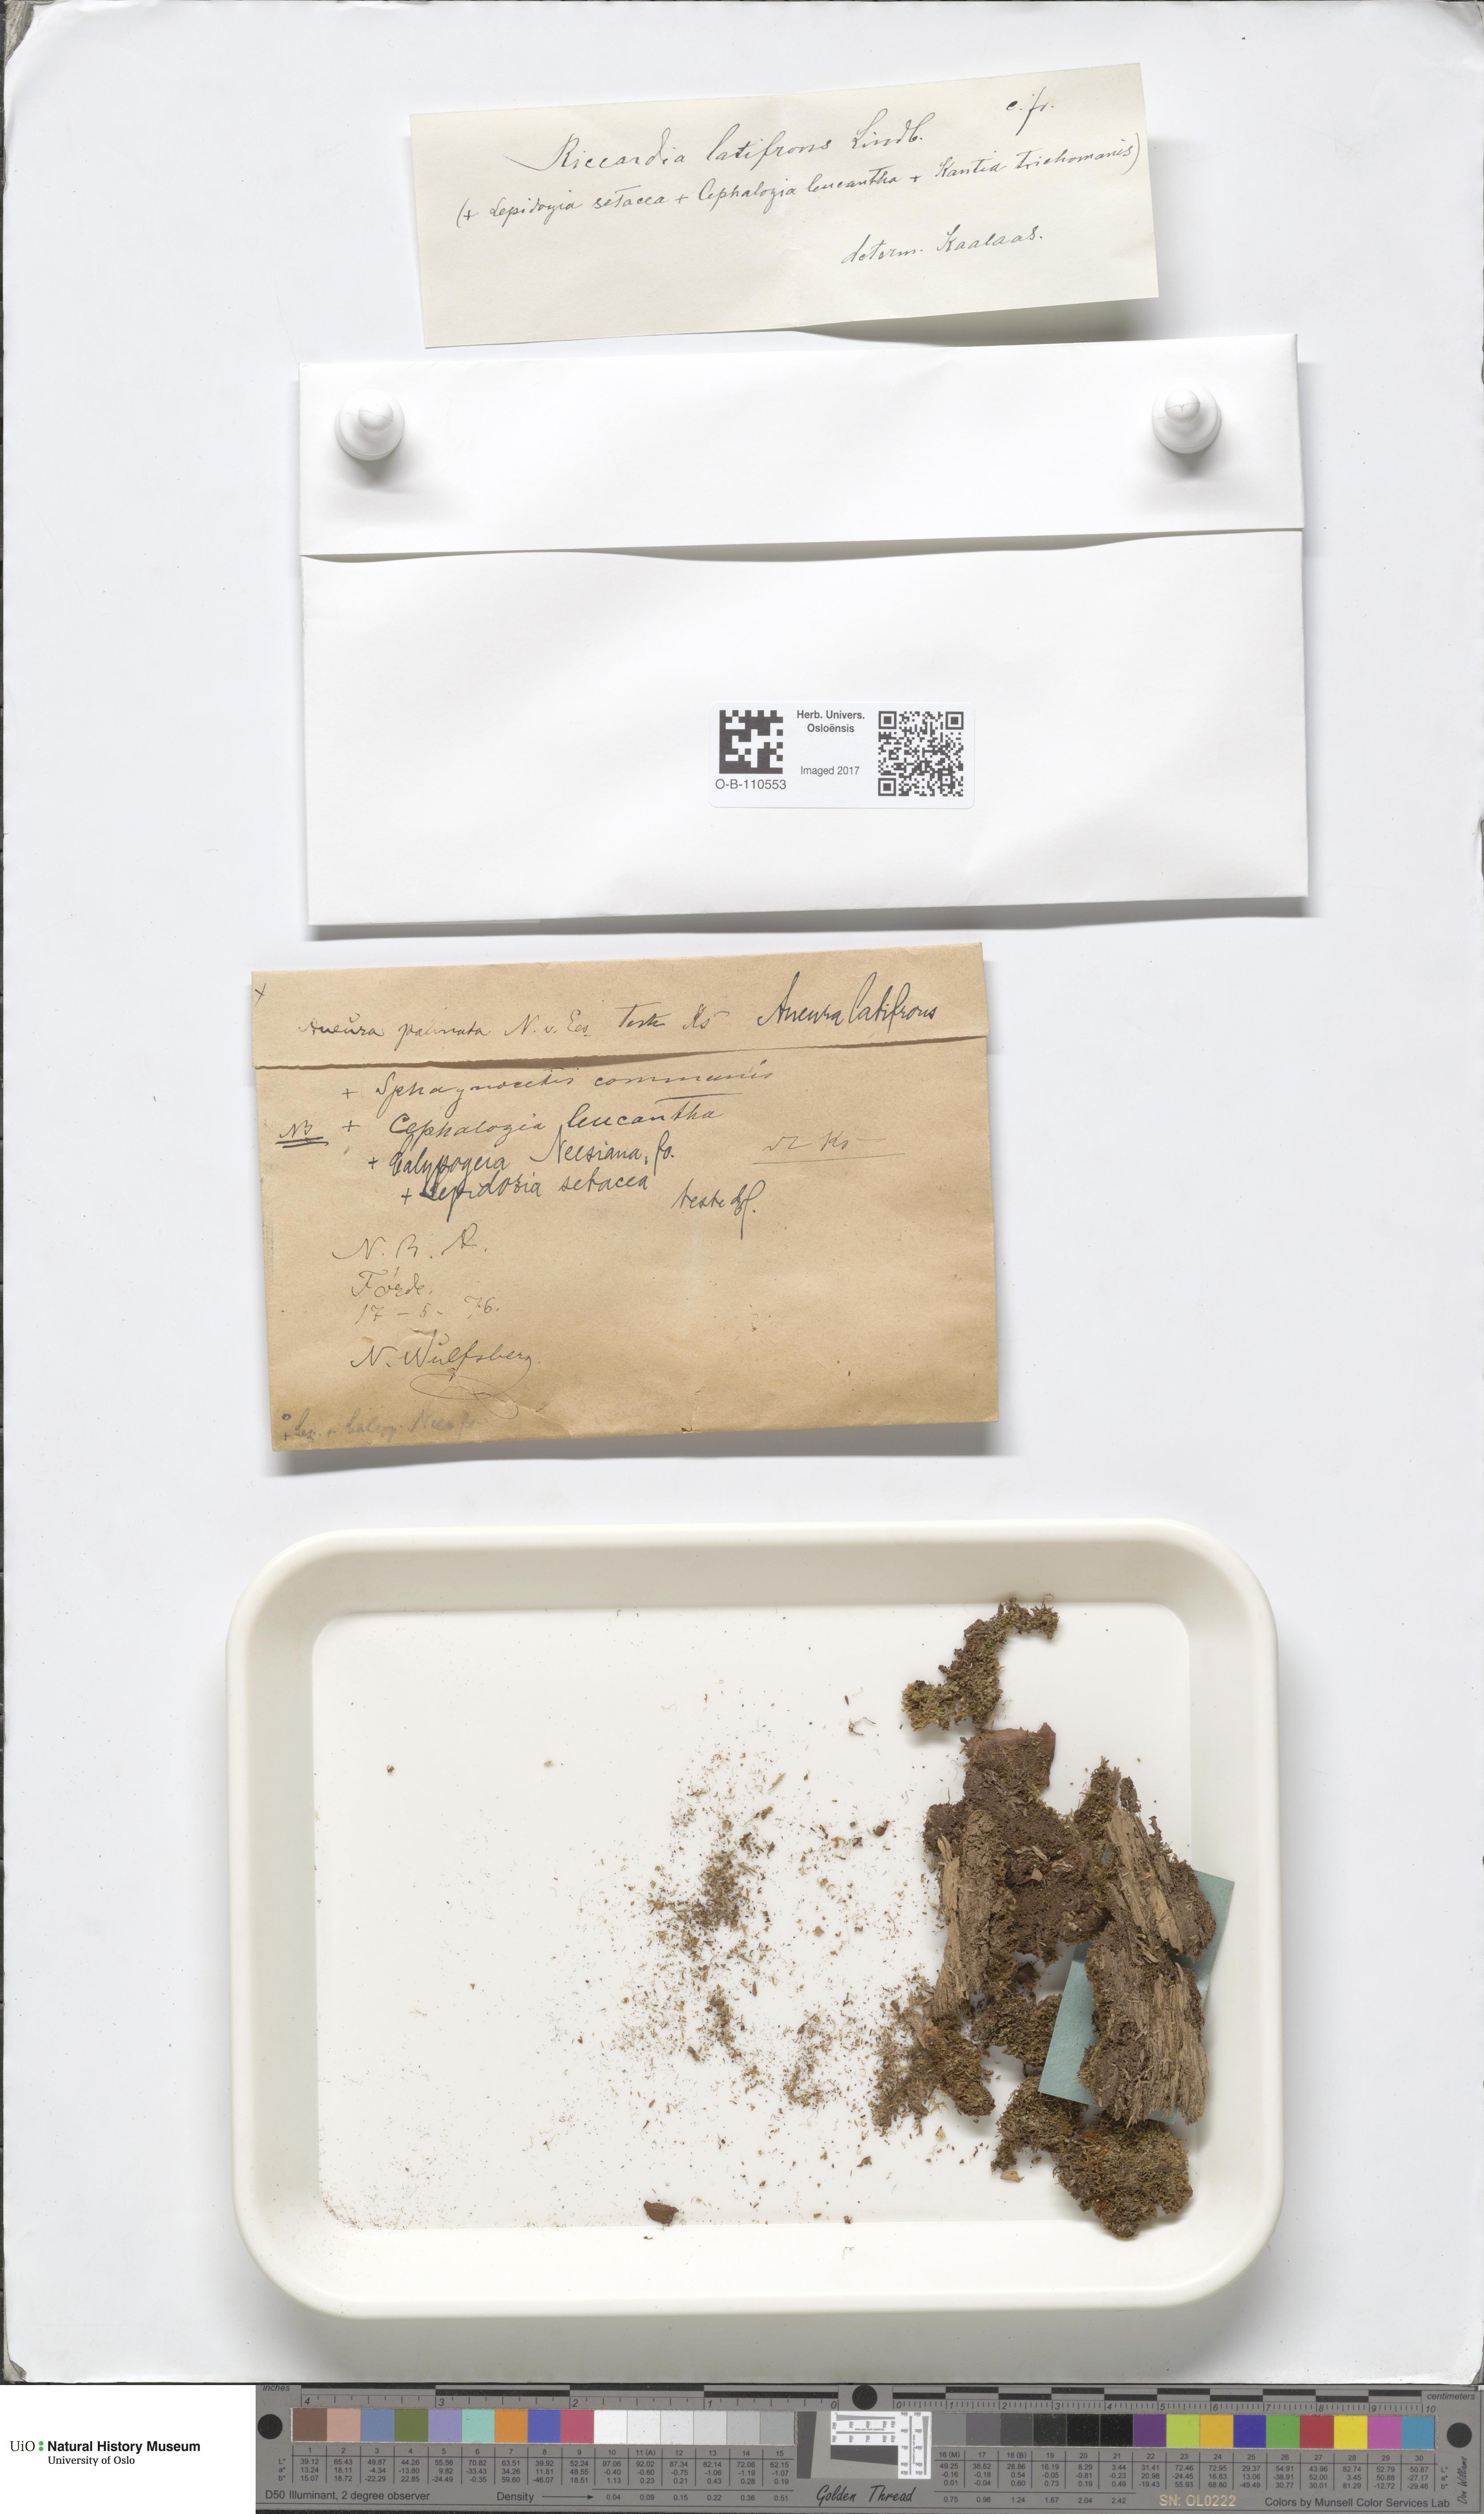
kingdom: Plantae
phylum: Marchantiophyta
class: Jungermanniopsida
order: Metzgeriales
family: Aneuraceae
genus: Riccardia
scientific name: Riccardia latifrons
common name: Bog germanderwort
